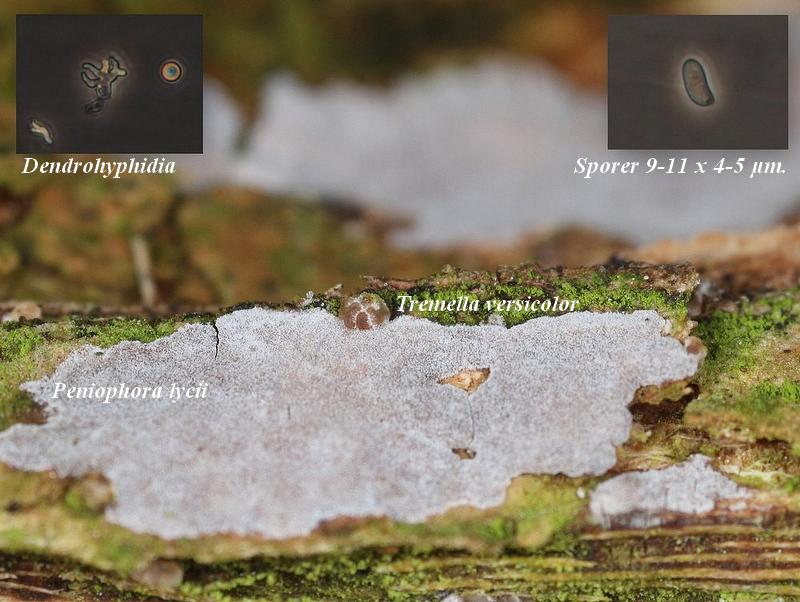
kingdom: Fungi
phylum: Basidiomycota
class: Agaricomycetes
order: Russulales
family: Peniophoraceae
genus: Peniophora
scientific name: Peniophora lycii
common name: grynet voksskind
